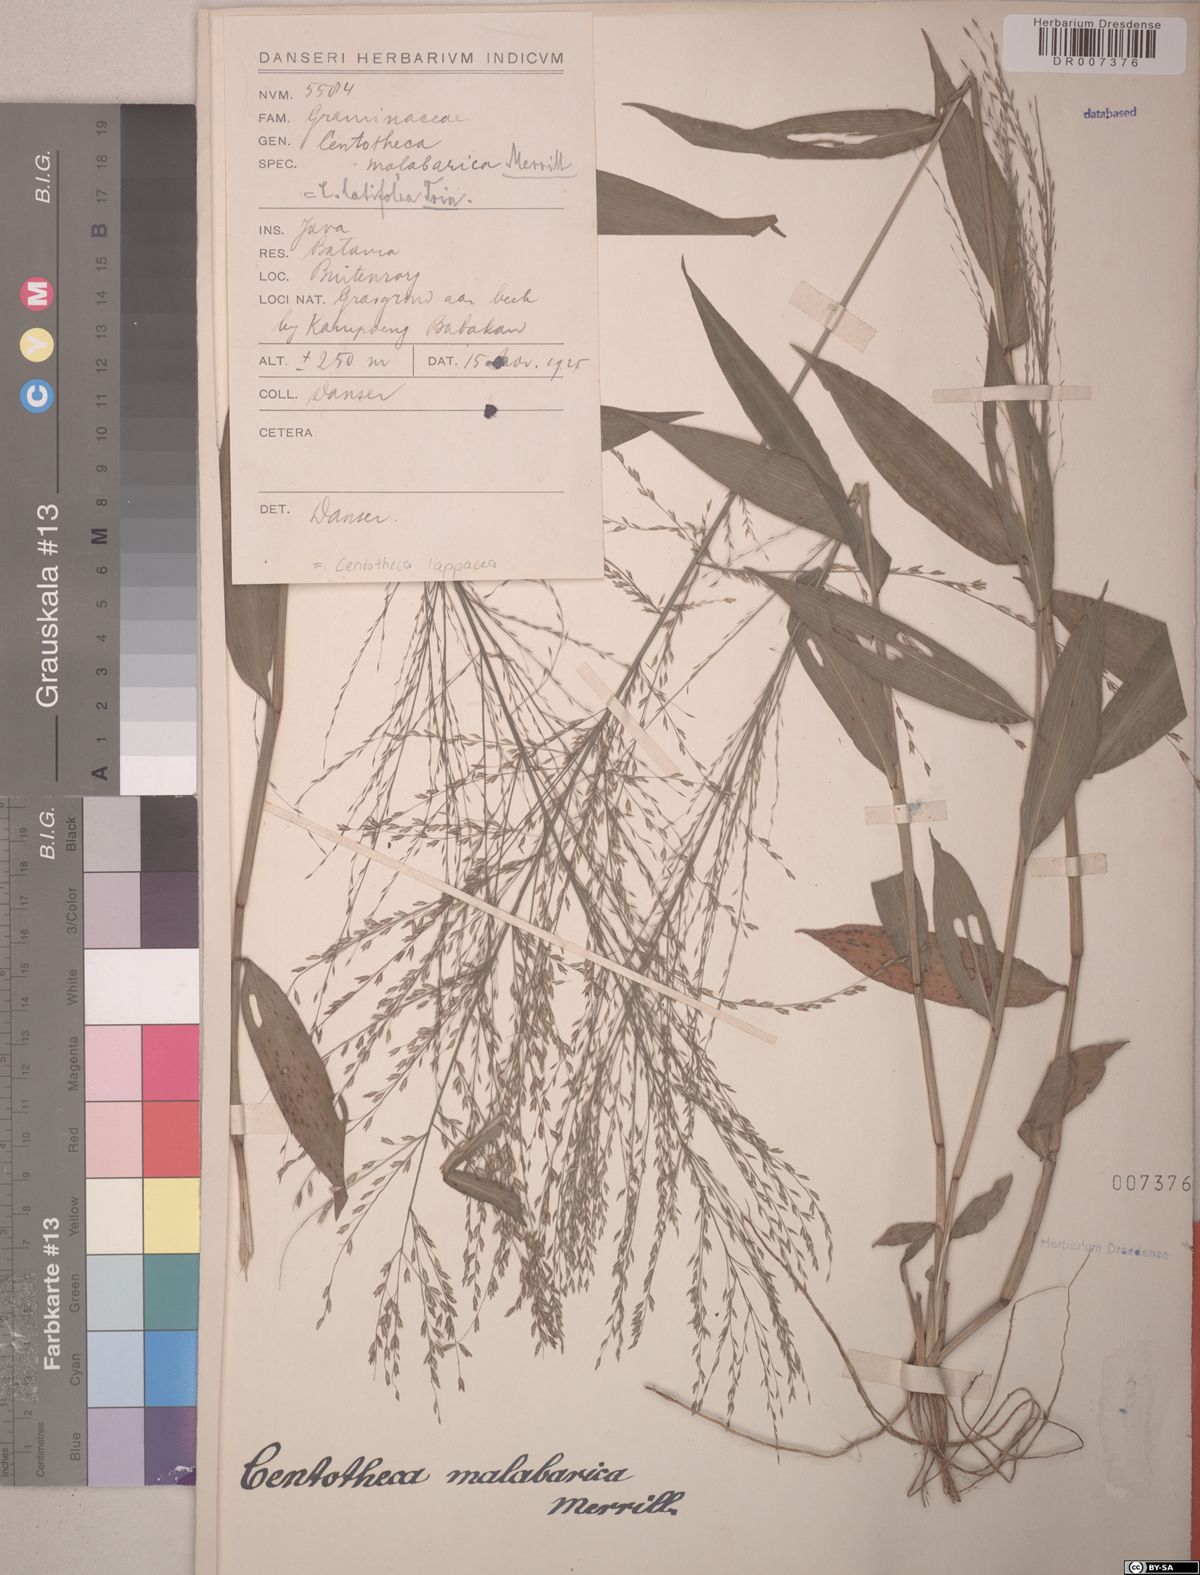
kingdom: Plantae
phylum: Tracheophyta
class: Liliopsida
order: Poales
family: Poaceae
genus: Centotheca
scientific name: Centotheca lappacea
